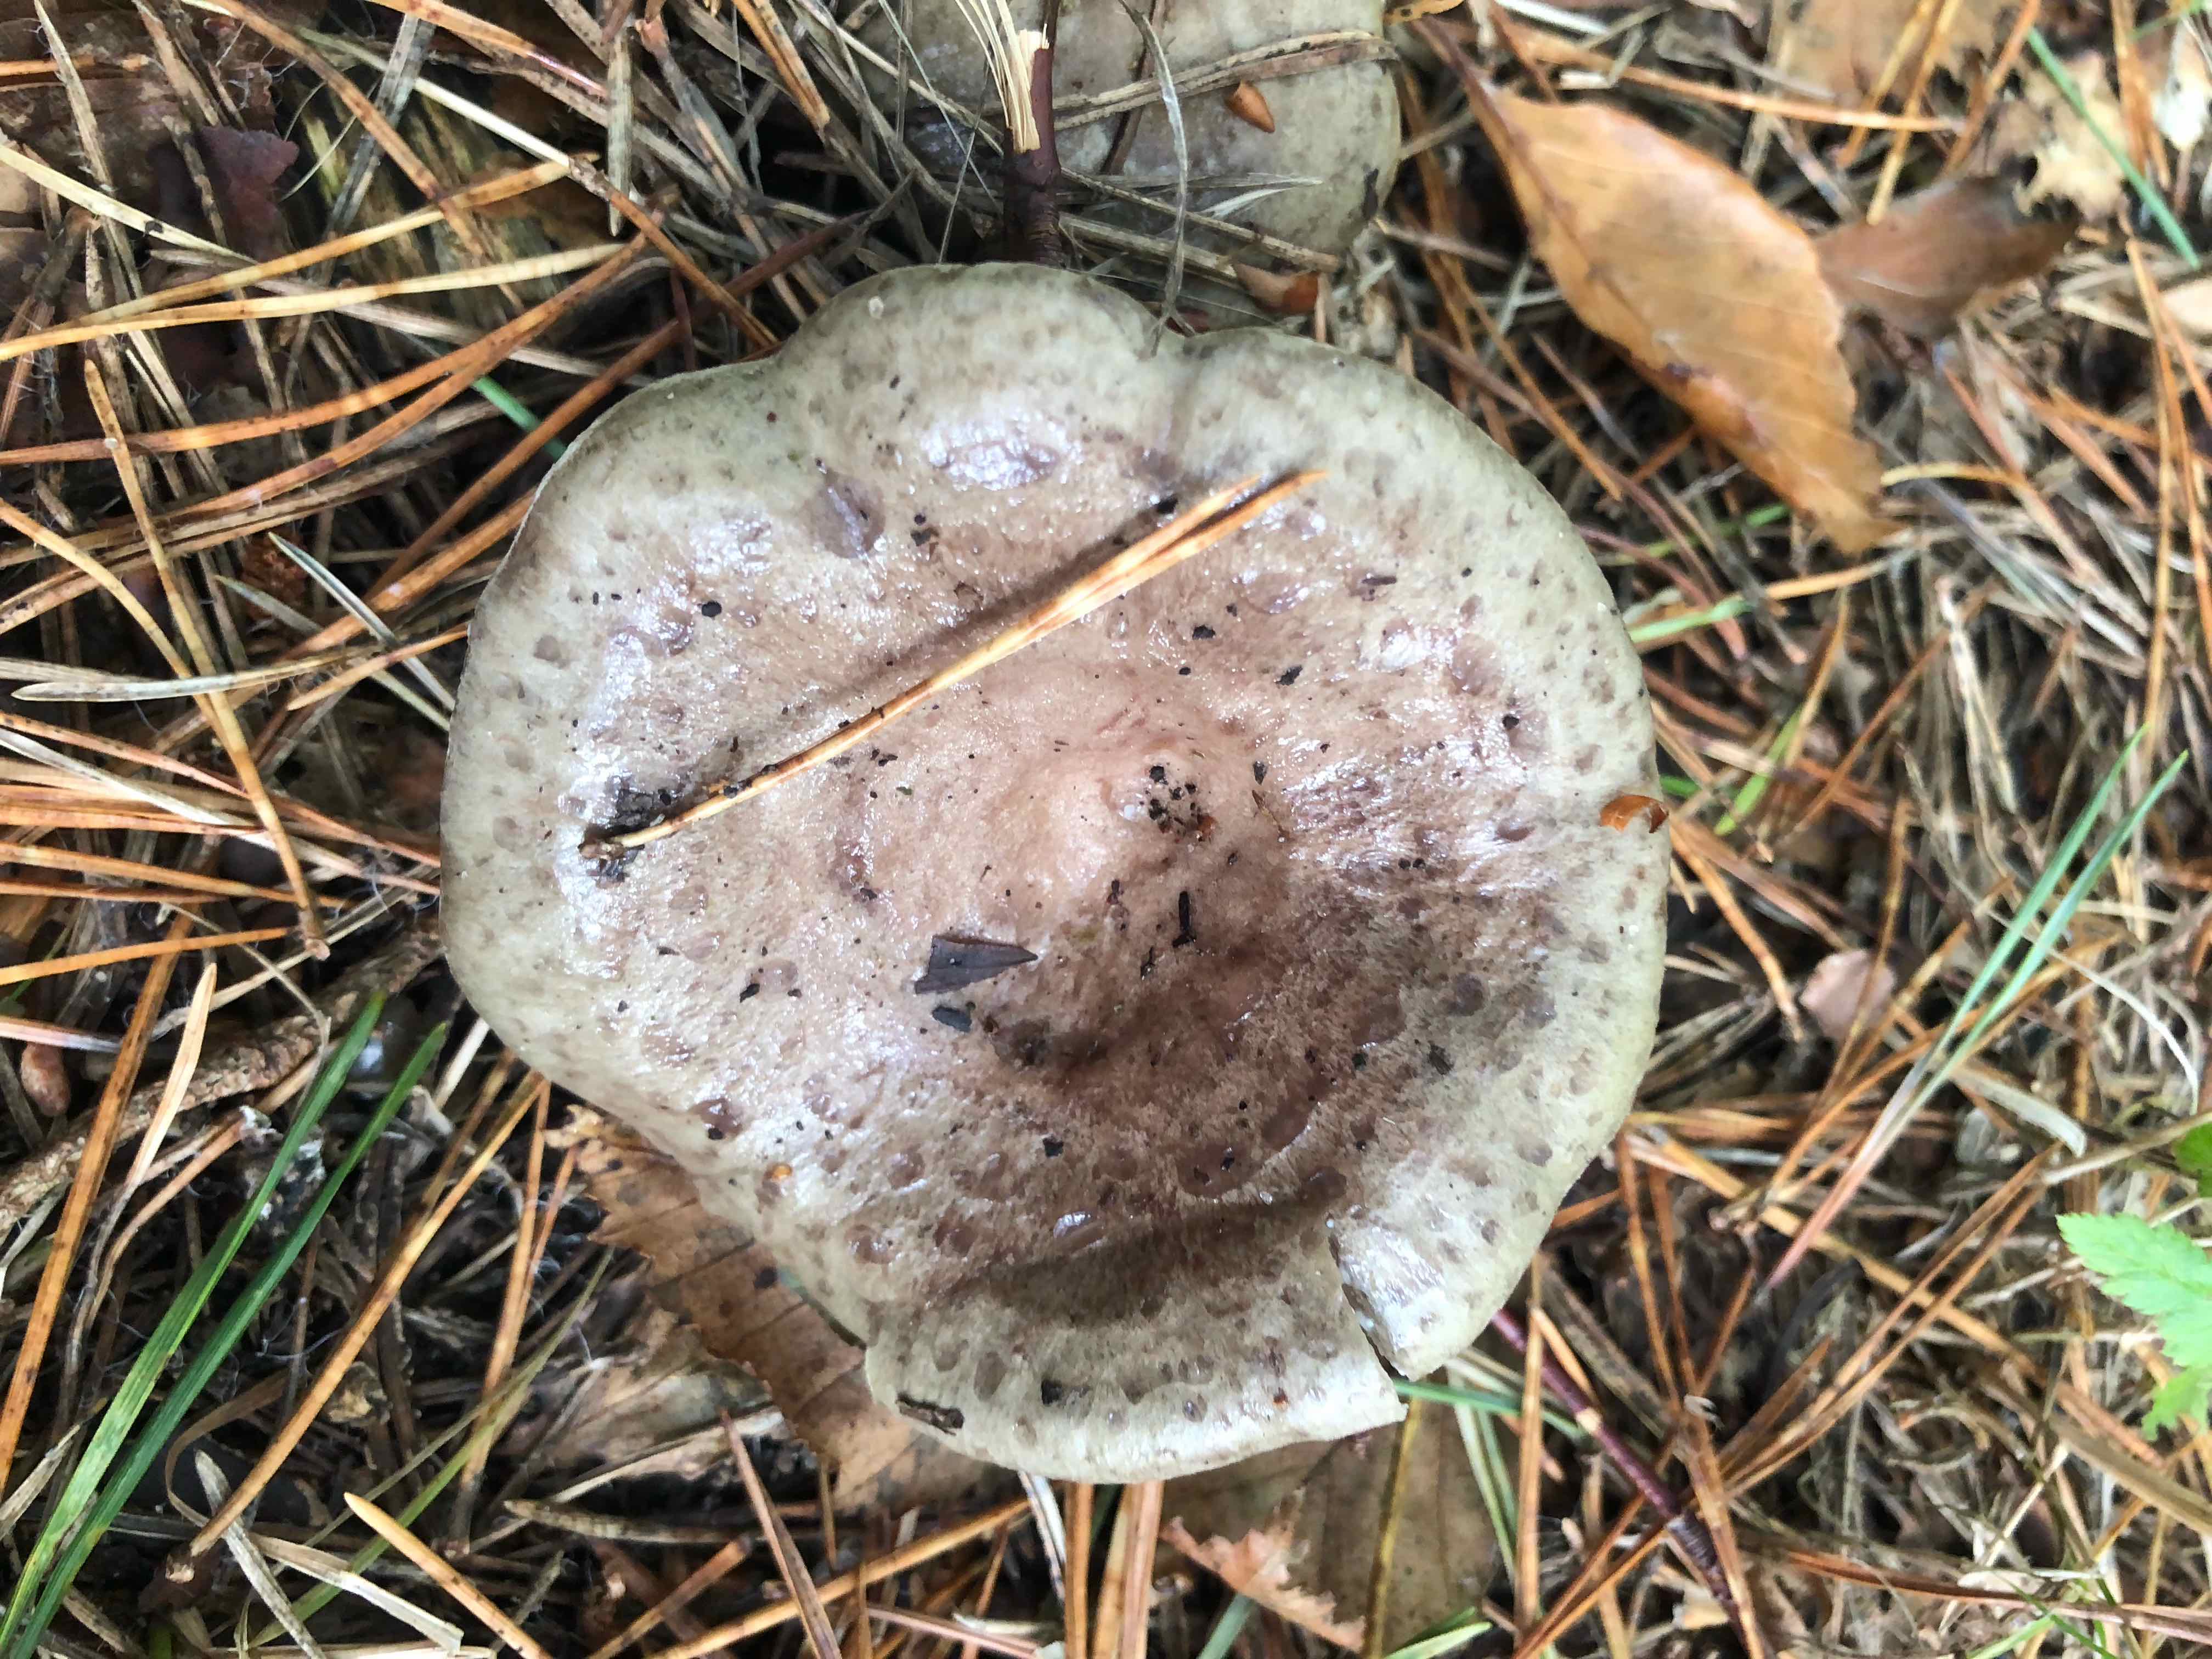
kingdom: Fungi
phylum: Basidiomycota
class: Agaricomycetes
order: Russulales
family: Russulaceae
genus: Lactarius
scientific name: Lactarius blennius
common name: dråbeplettet mælkehat
